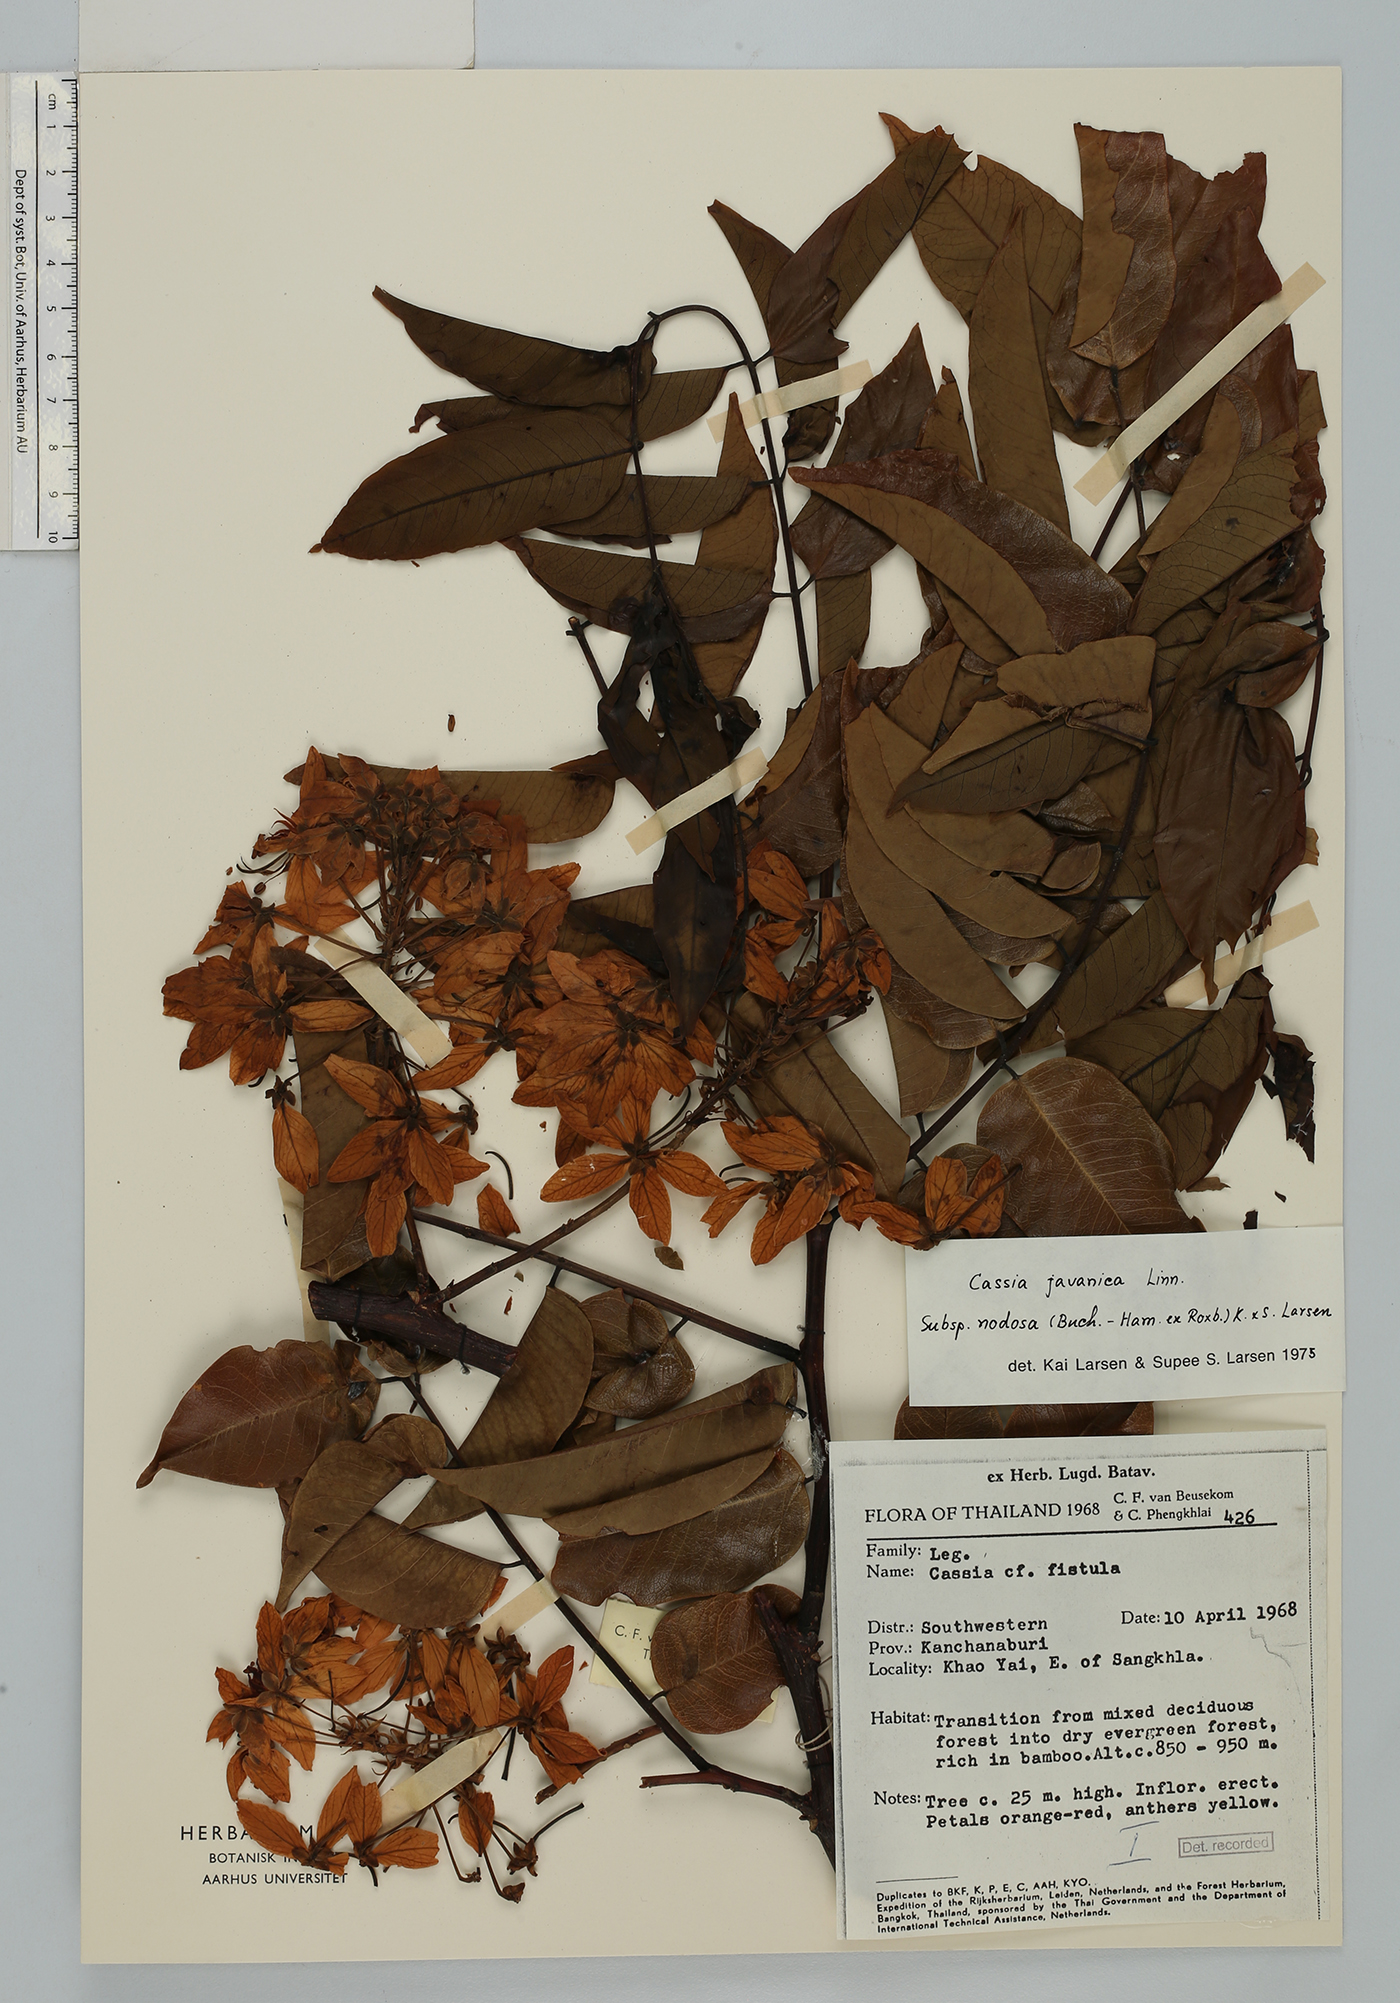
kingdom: Plantae
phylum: Tracheophyta
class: Magnoliopsida
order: Fabales
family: Fabaceae
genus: Cassia
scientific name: Cassia javanica
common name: Apple blossom
